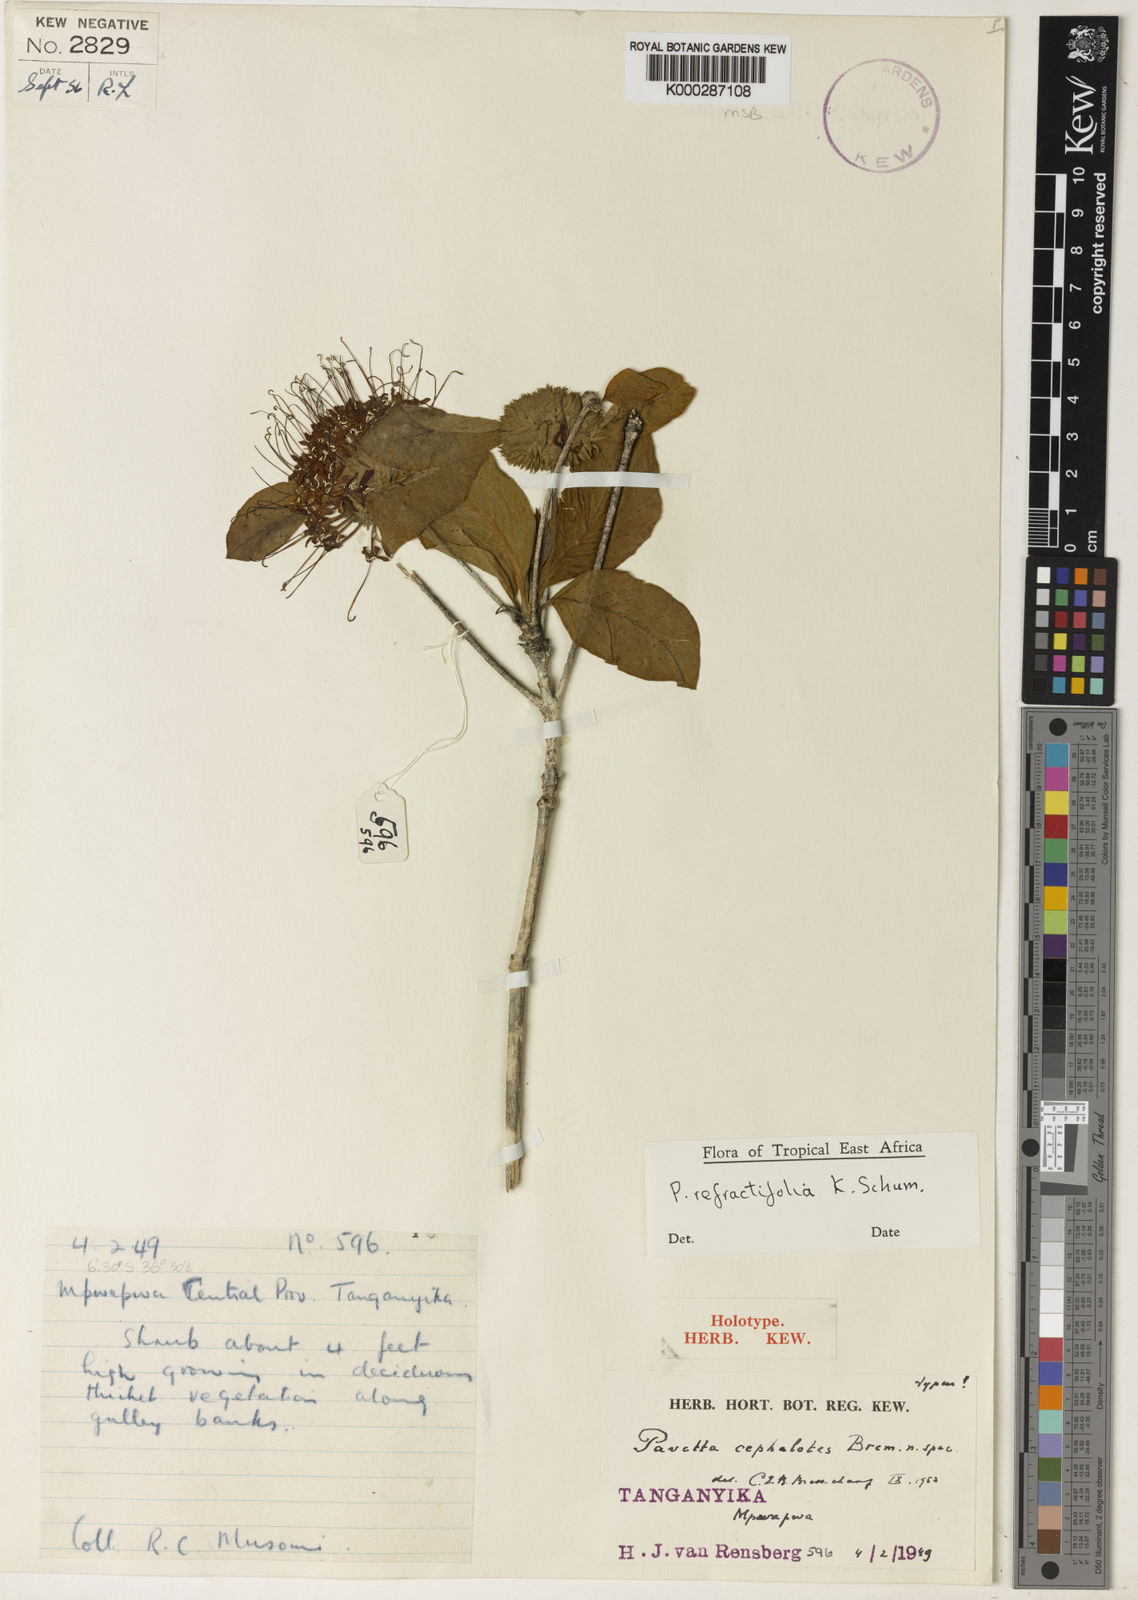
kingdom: Plantae
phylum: Tracheophyta
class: Magnoliopsida
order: Gentianales
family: Rubiaceae
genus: Pavetta
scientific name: Pavetta refractifolia
